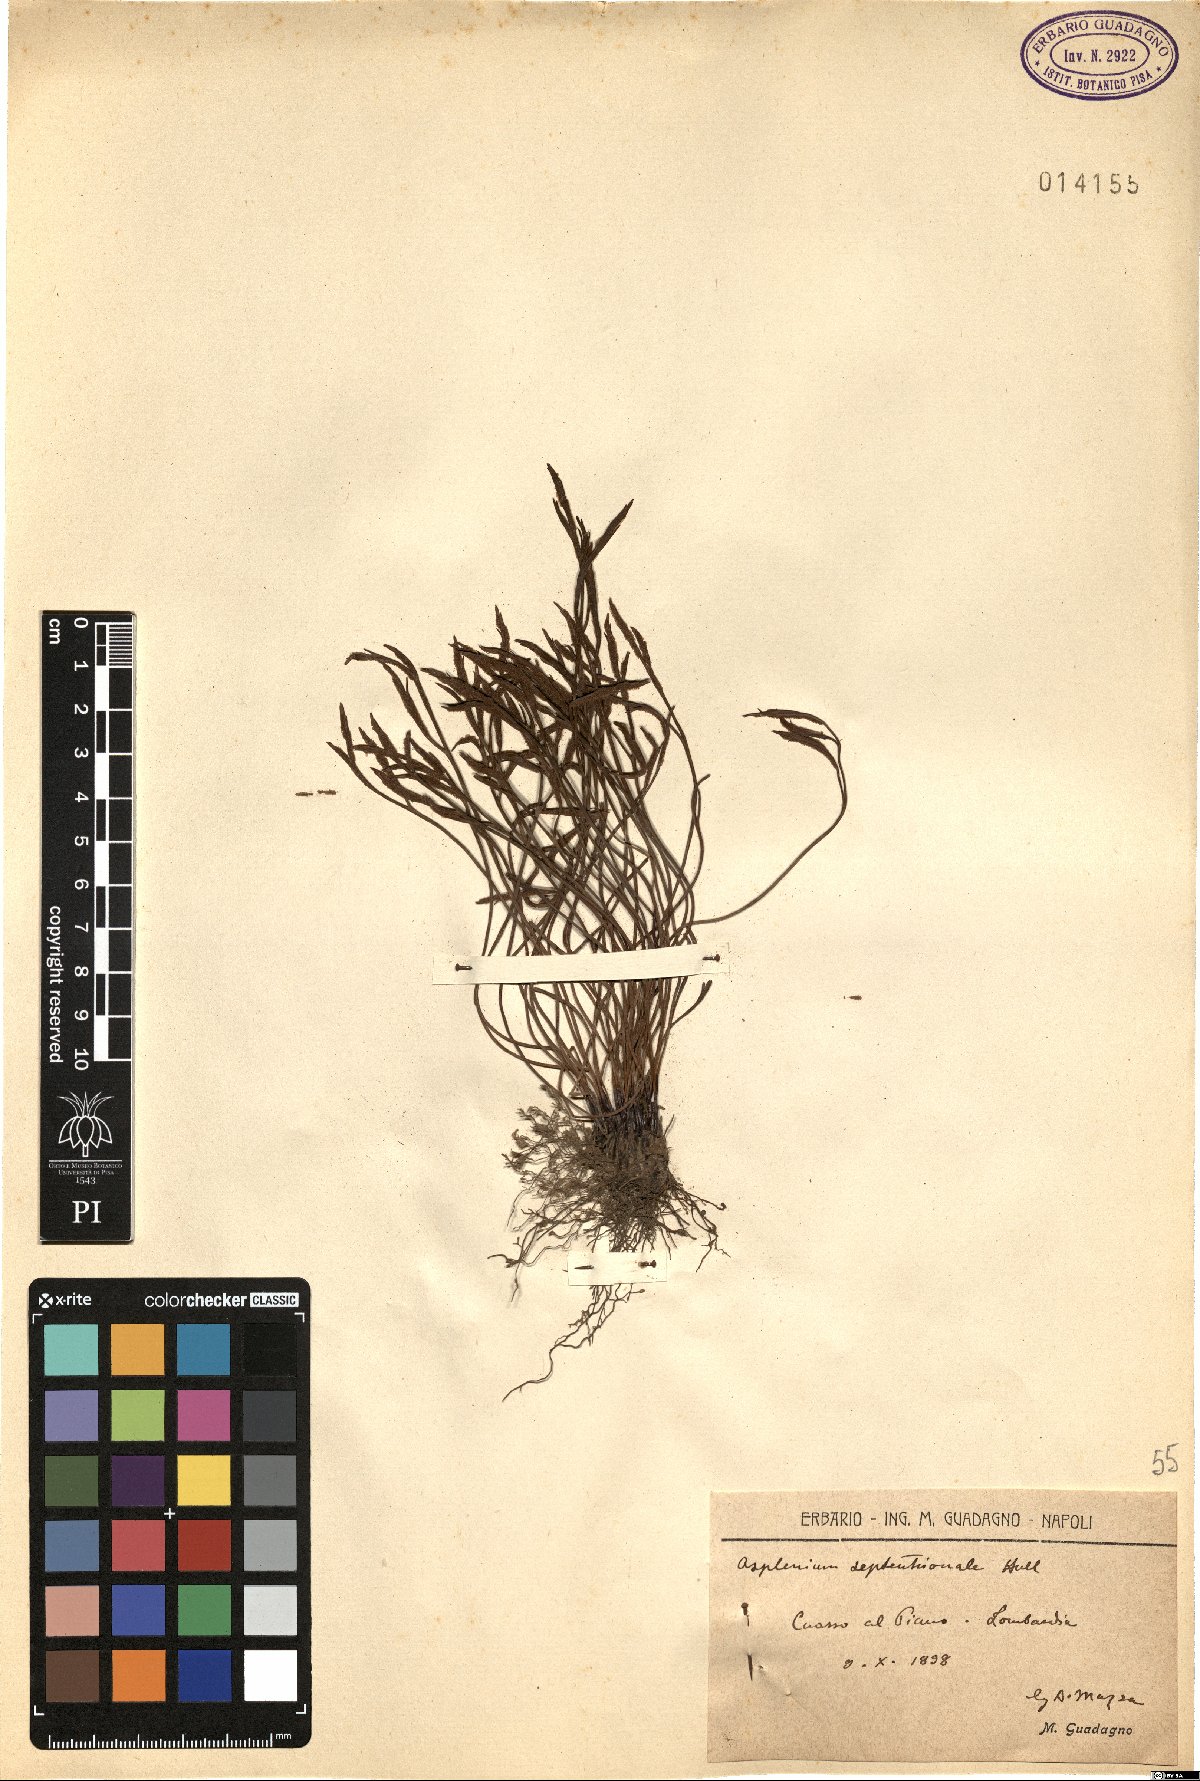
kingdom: Plantae
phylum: Tracheophyta
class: Polypodiopsida
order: Polypodiales
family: Aspleniaceae
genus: Asplenium
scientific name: Asplenium septentrionale
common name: Forked spleenwort
